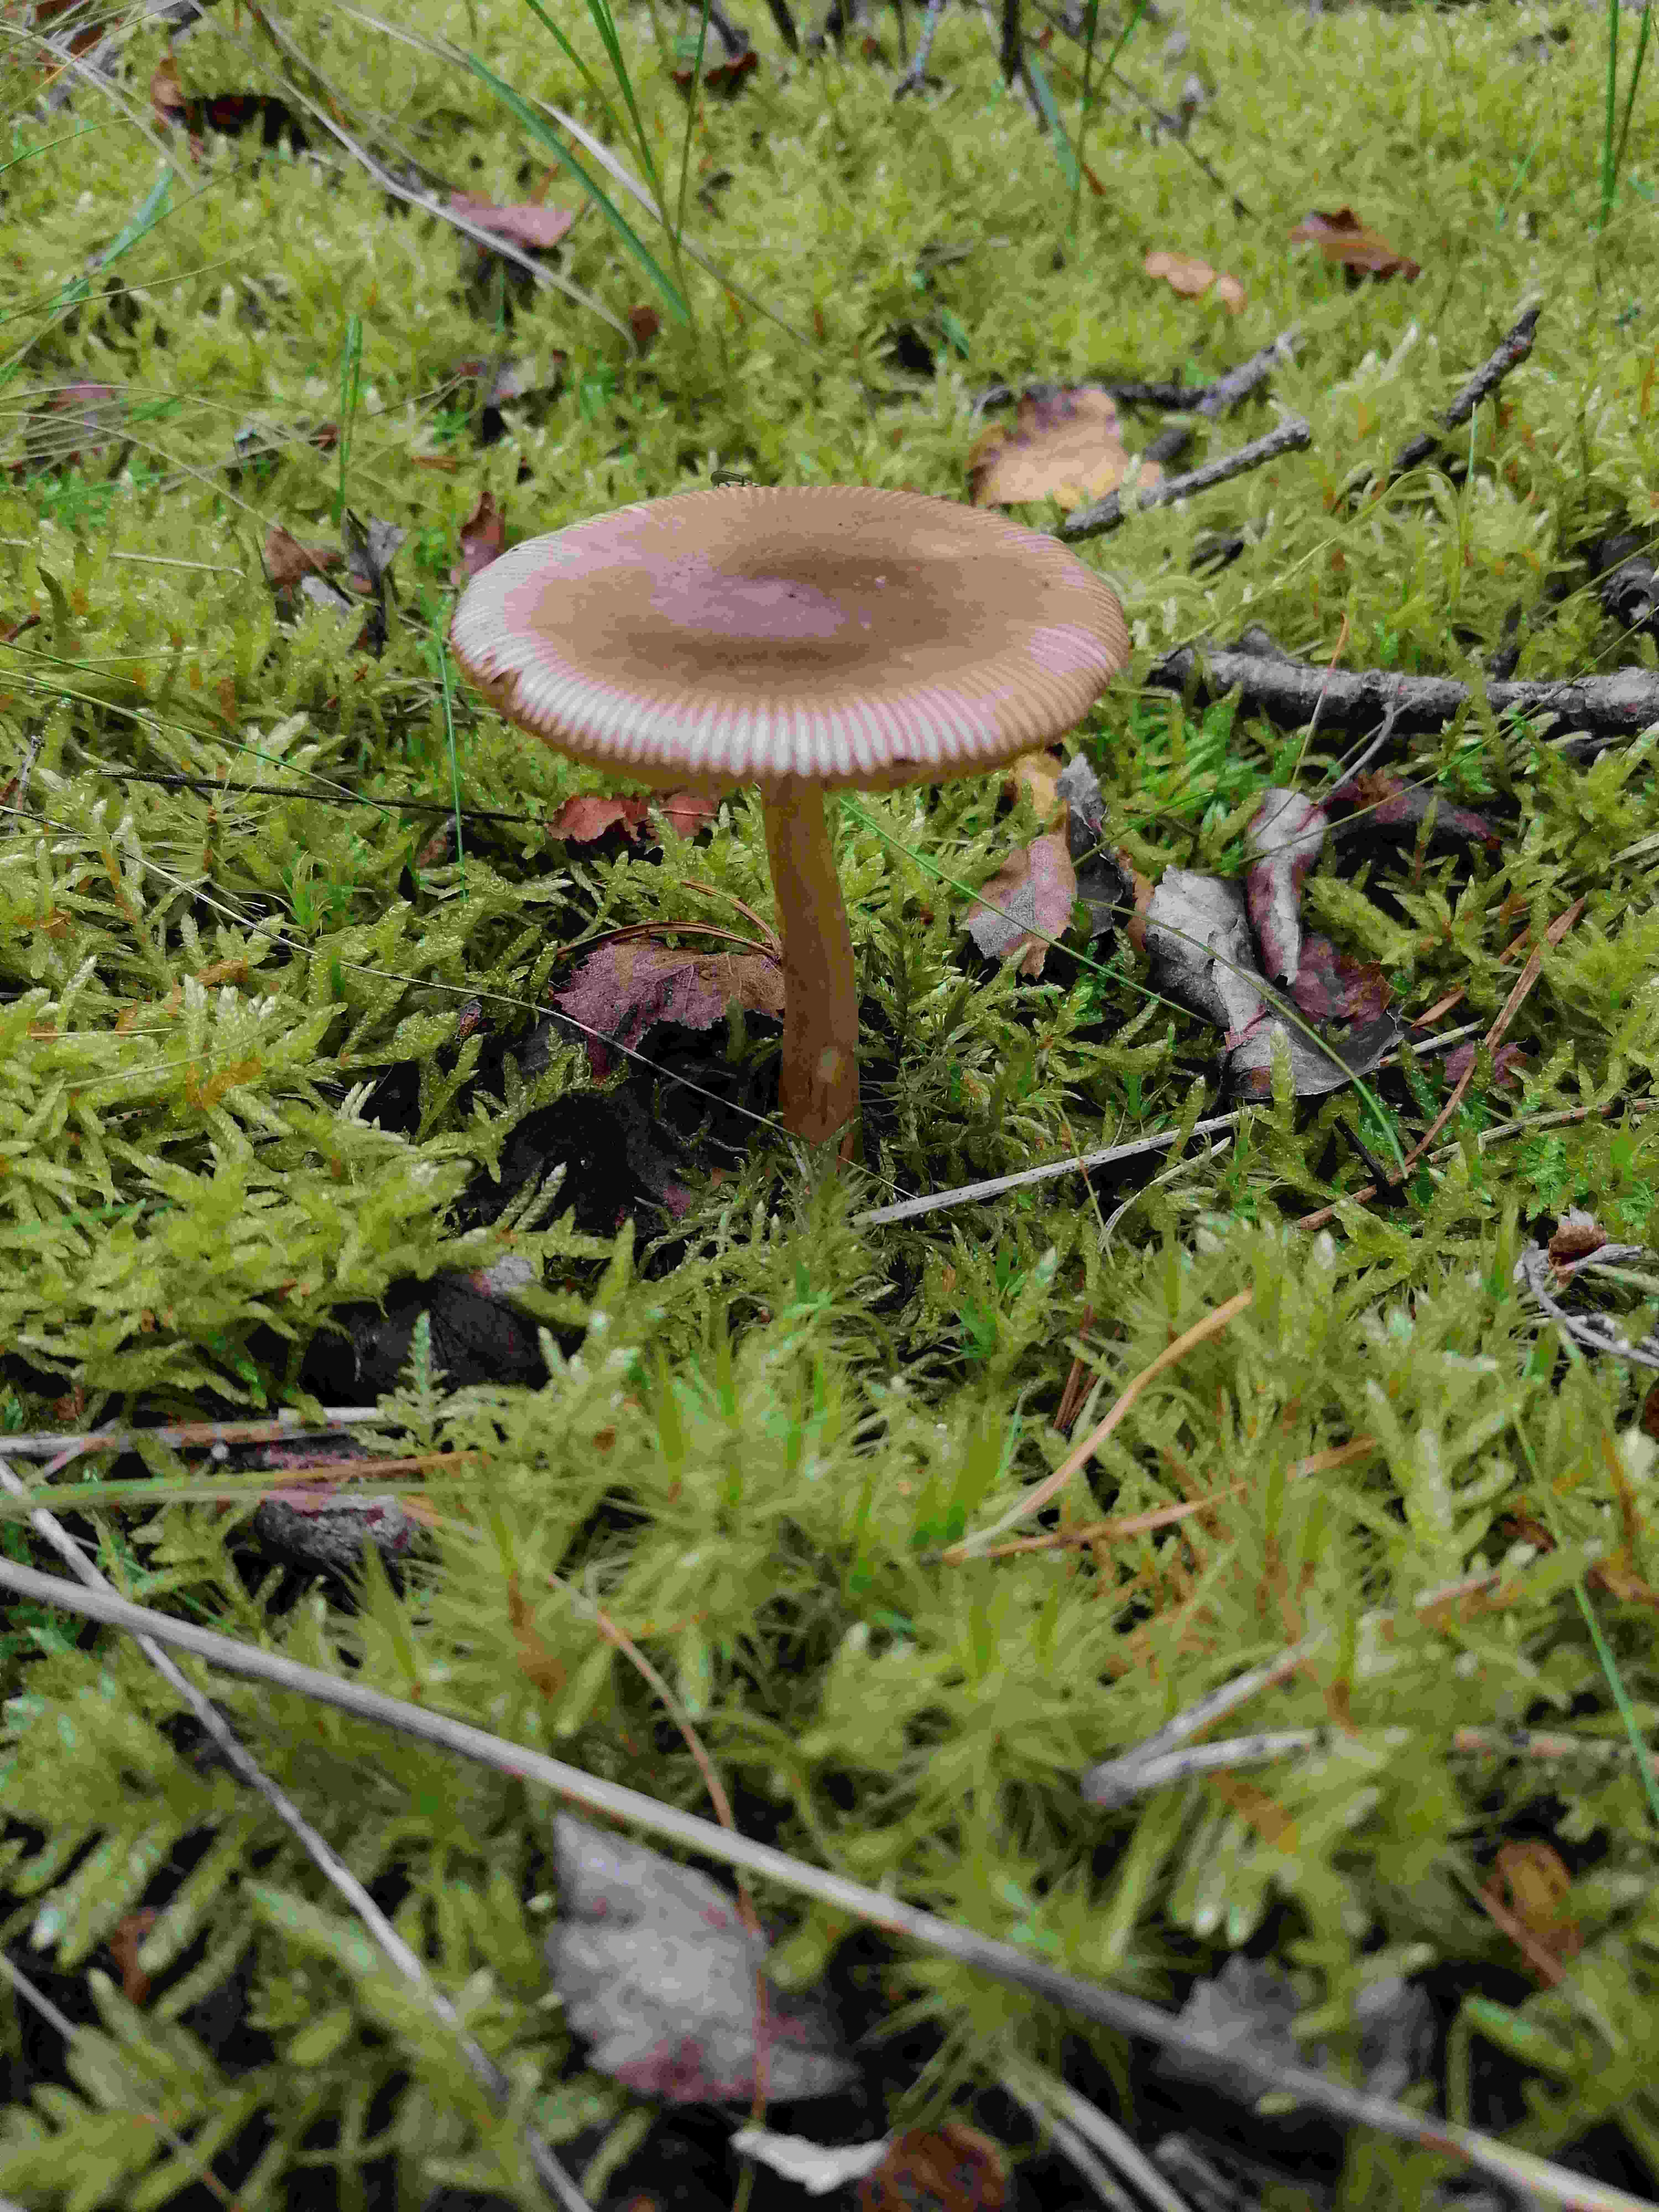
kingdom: Fungi
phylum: Basidiomycota
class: Agaricomycetes
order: Agaricales
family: Amanitaceae
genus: Amanita
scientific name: Amanita fulva
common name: brun kam-fluesvamp
